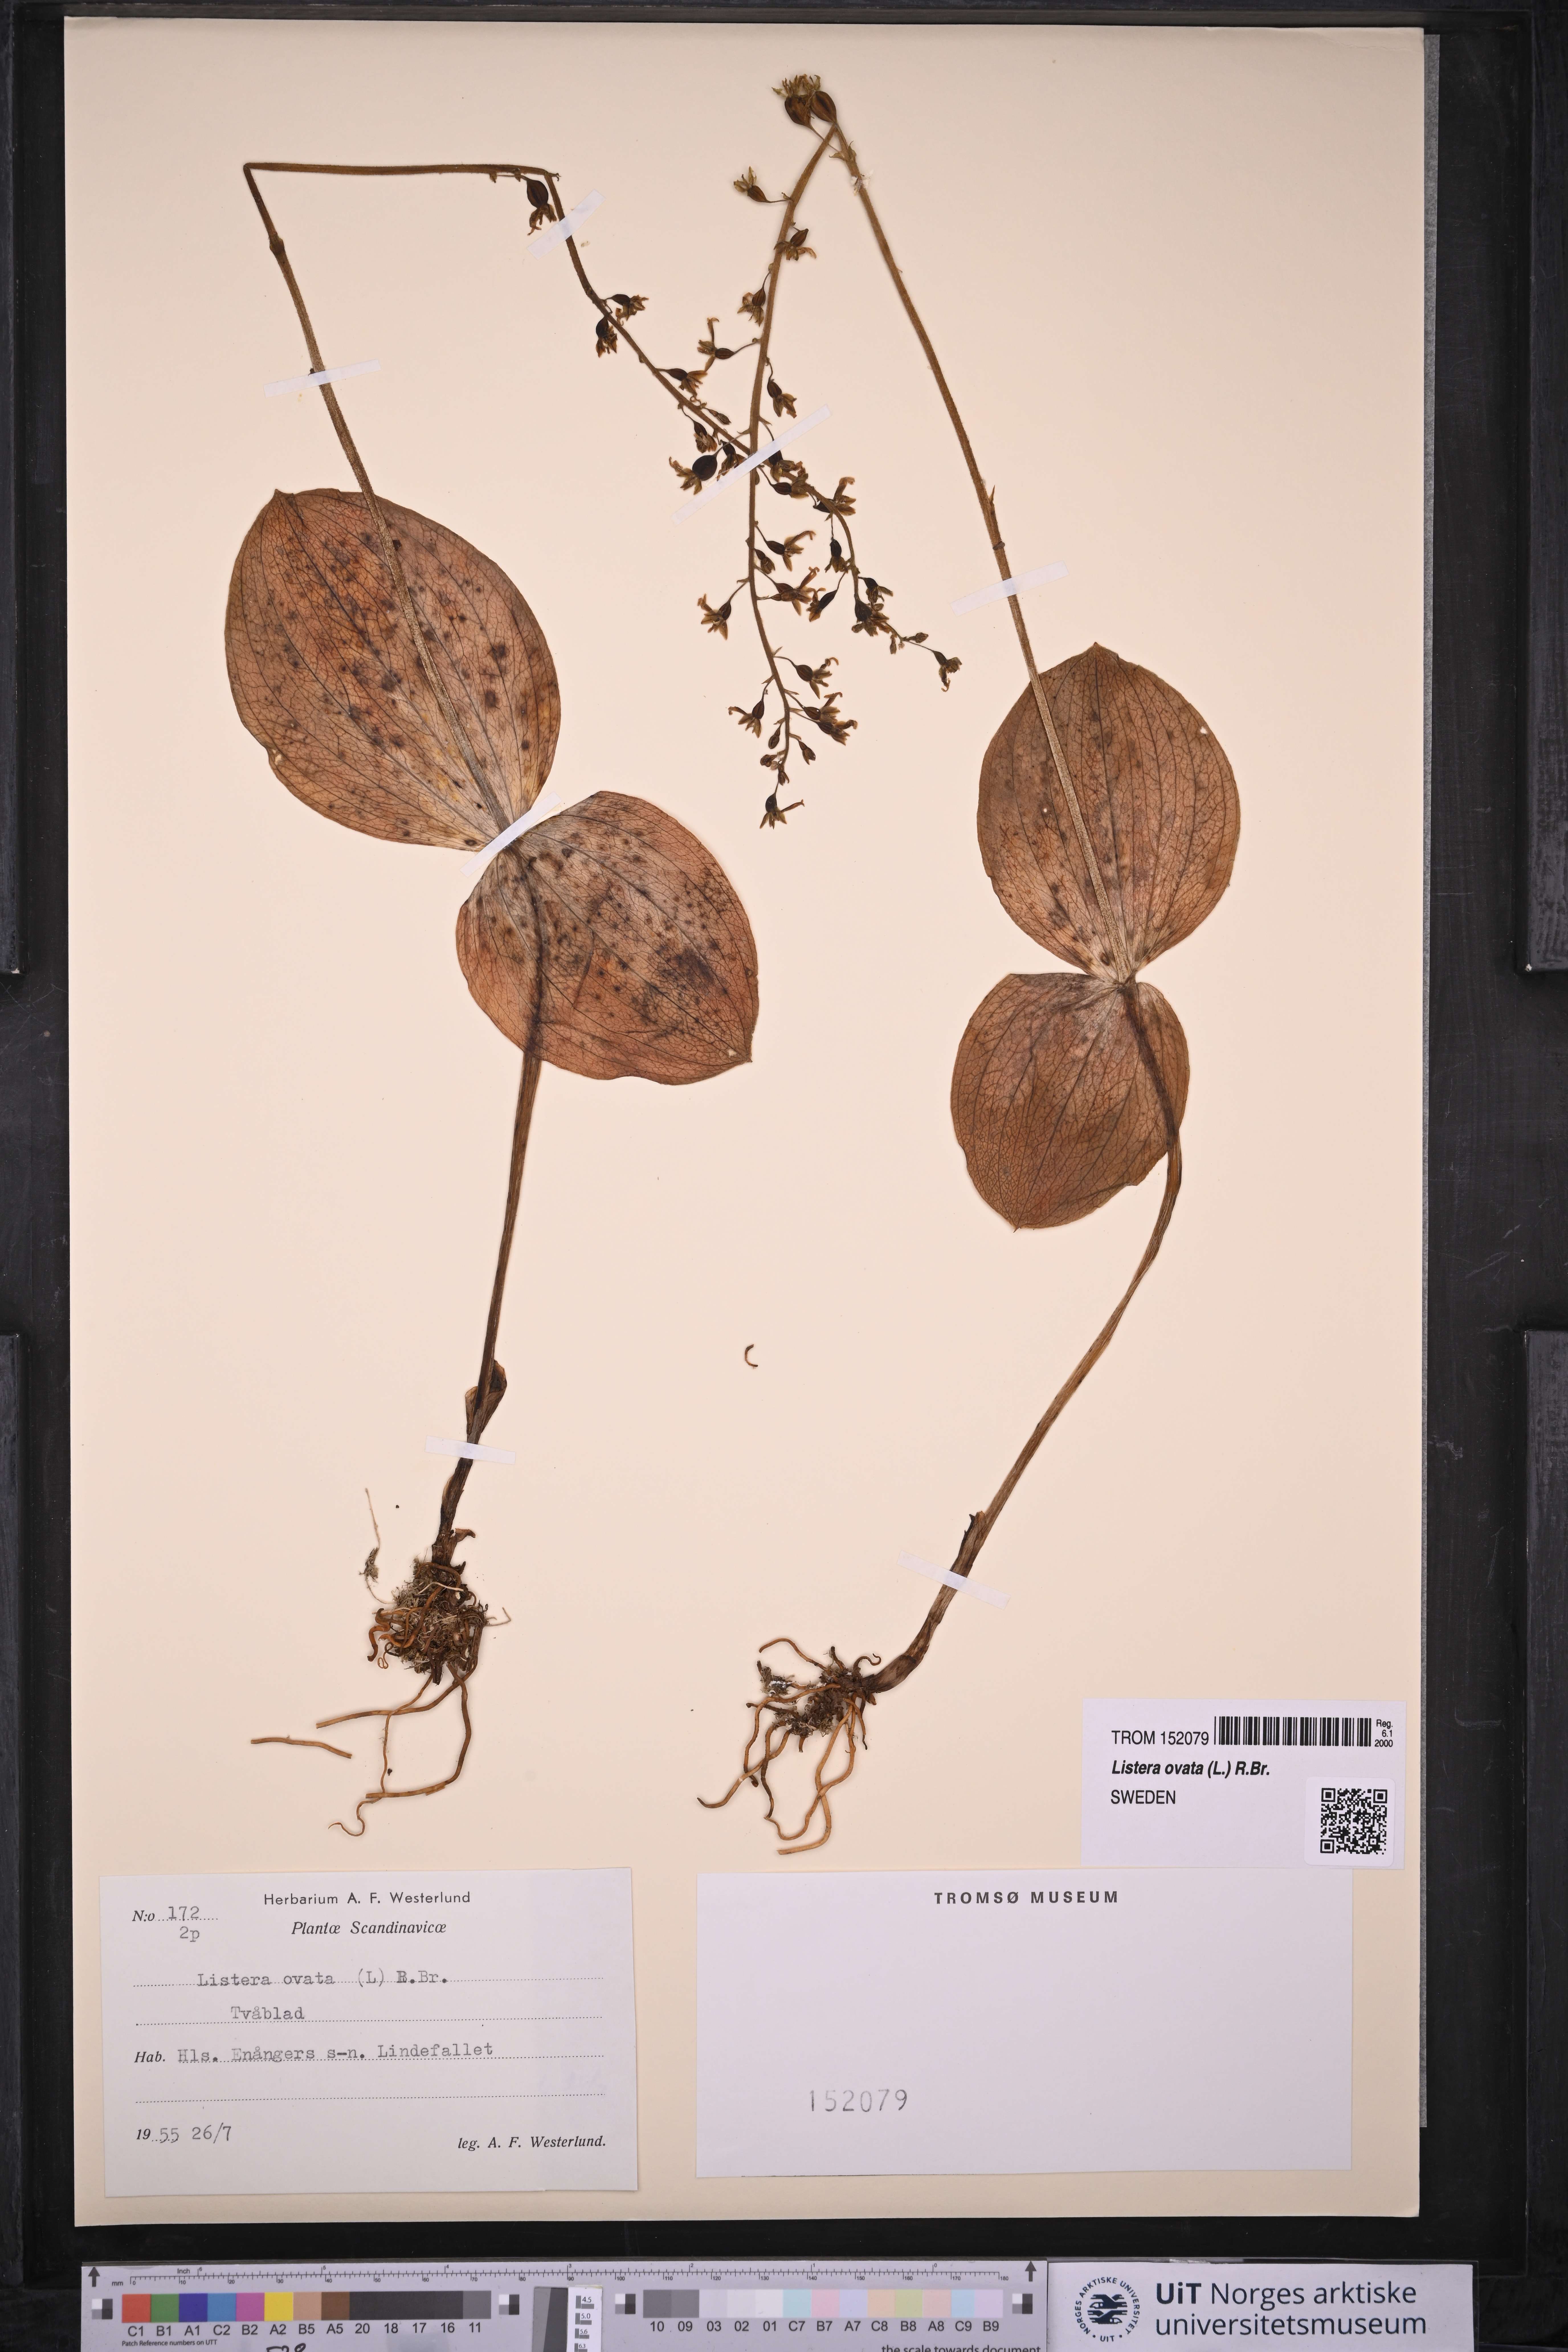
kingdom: Plantae
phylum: Tracheophyta
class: Liliopsida
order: Asparagales
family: Orchidaceae
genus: Neottia
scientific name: Neottia ovata
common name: Common twayblade
